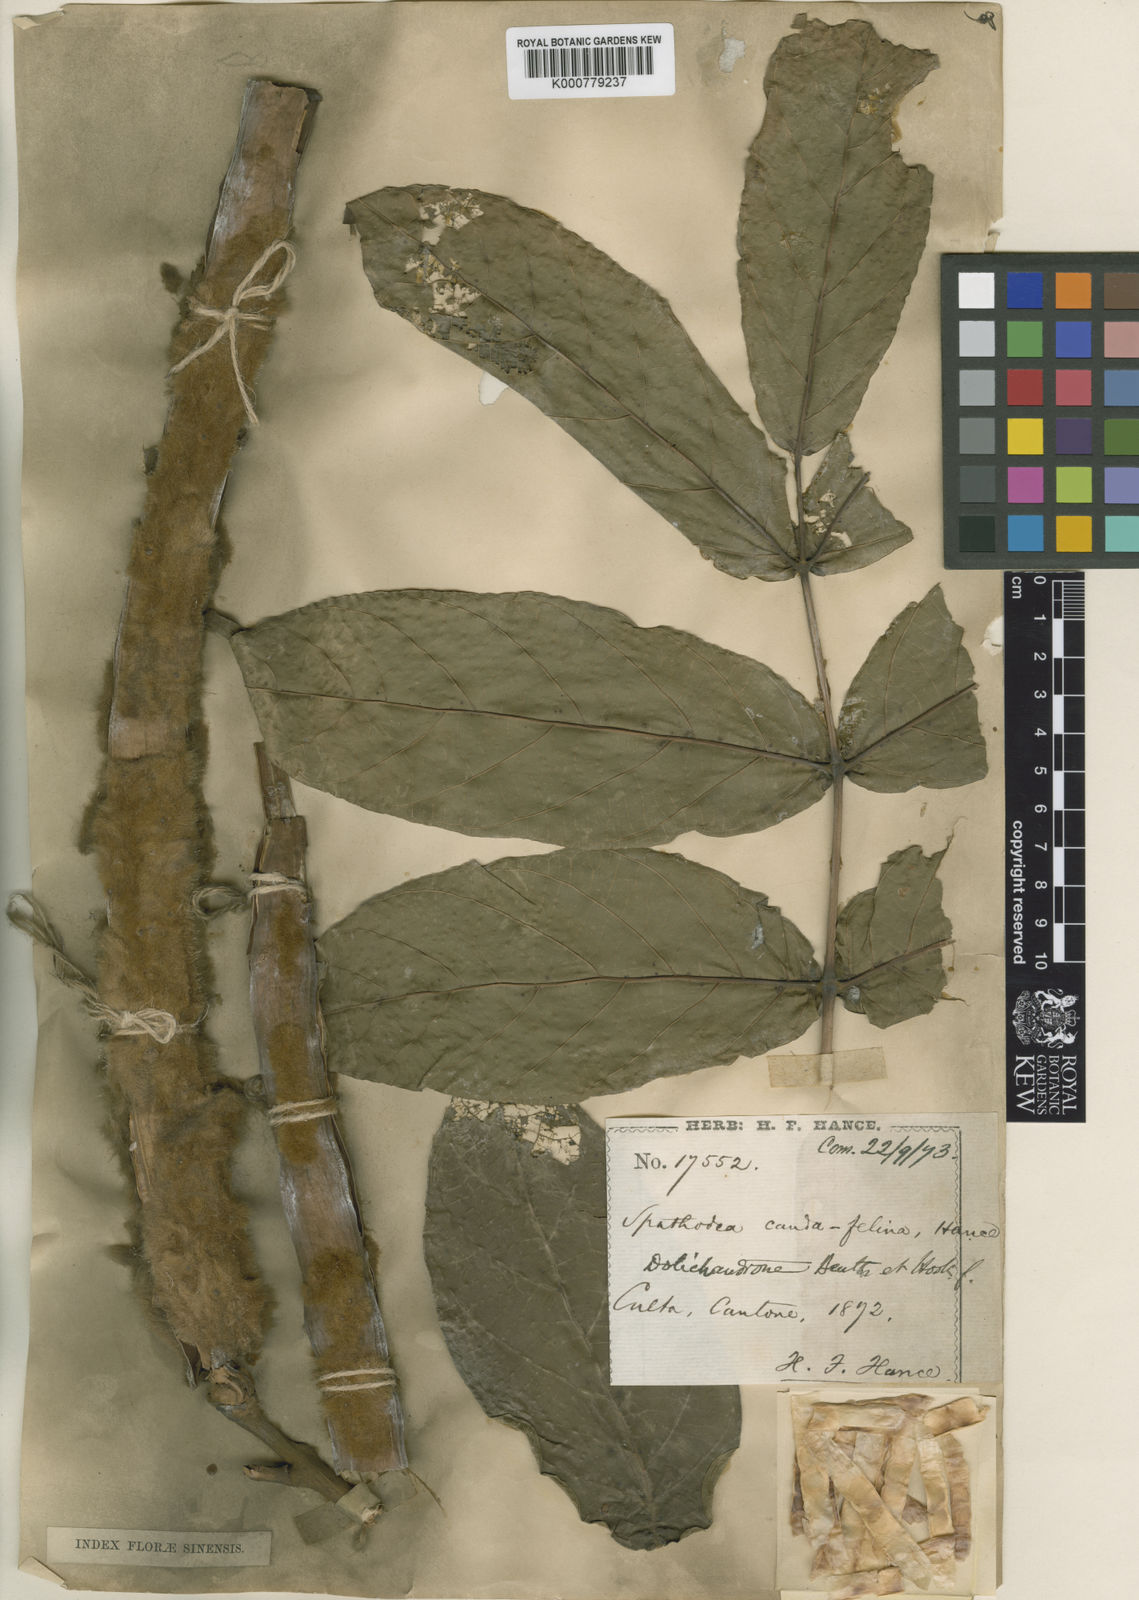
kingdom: Plantae
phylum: Tracheophyta
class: Magnoliopsida
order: Lamiales
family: Bignoniaceae
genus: Markhamia
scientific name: Markhamia stipulata
